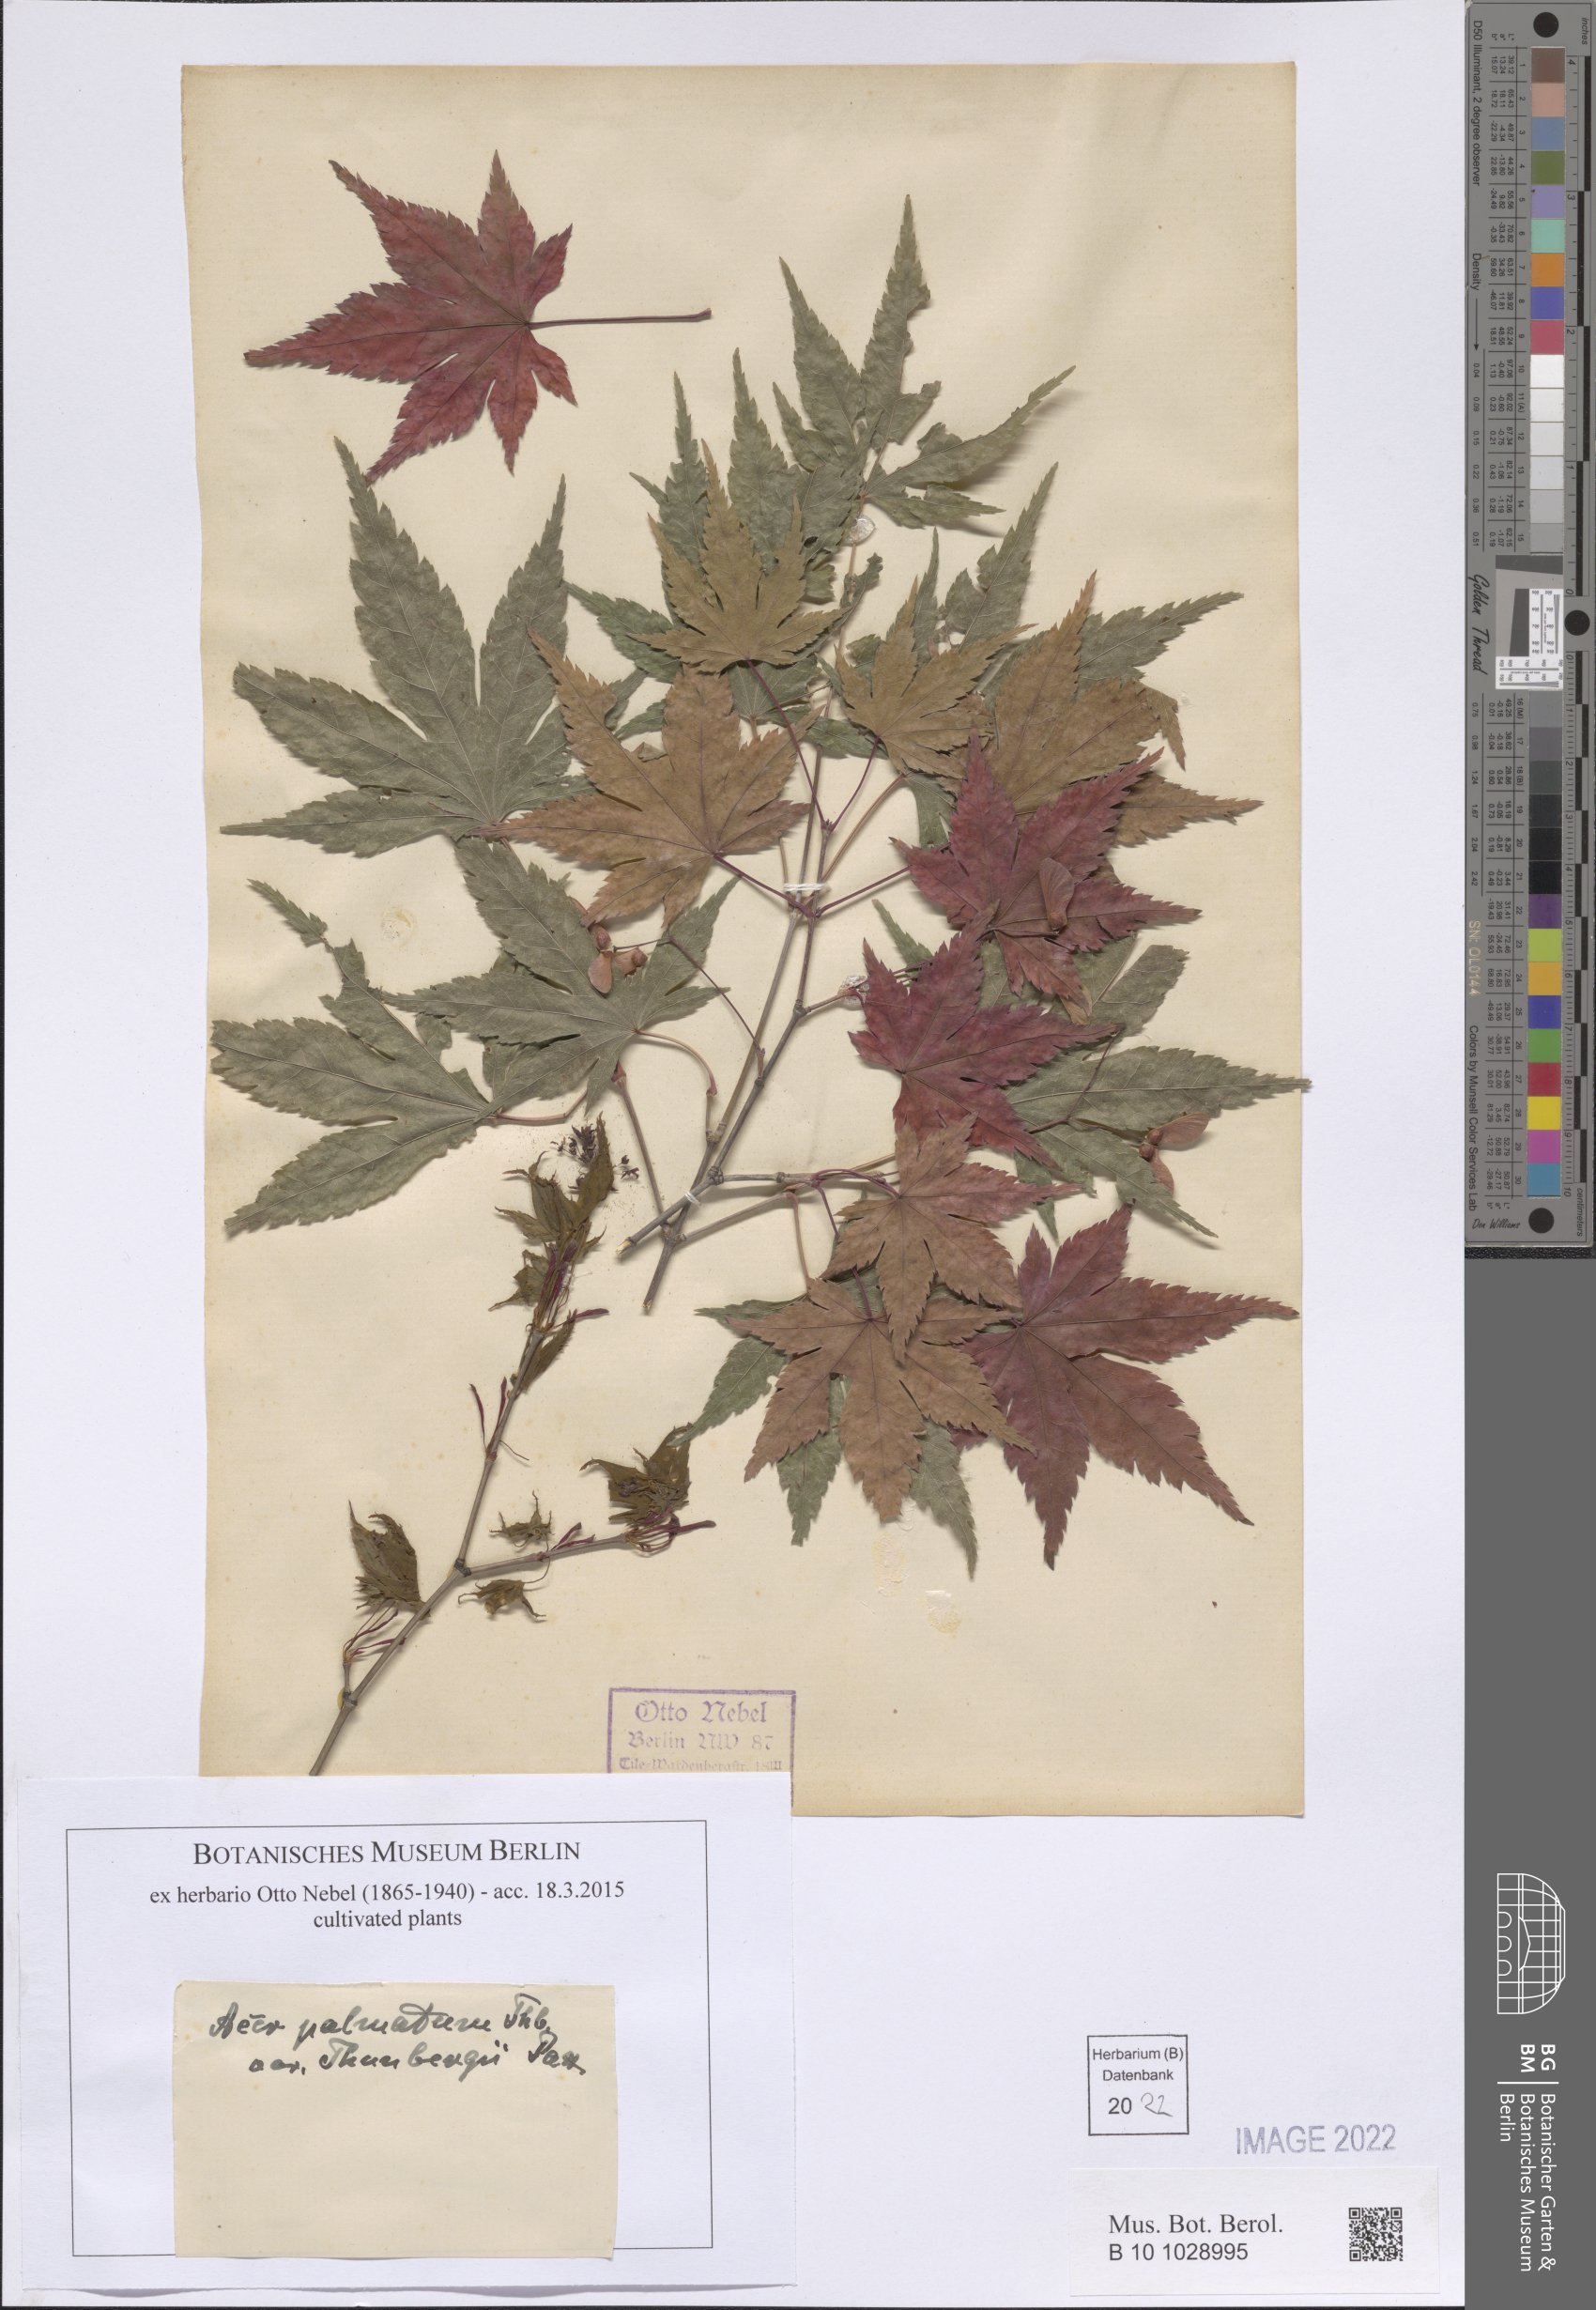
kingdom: Plantae
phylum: Tracheophyta
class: Magnoliopsida
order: Sapindales
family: Sapindaceae
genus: Acer
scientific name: Acer palmatum
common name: Japanese maple
